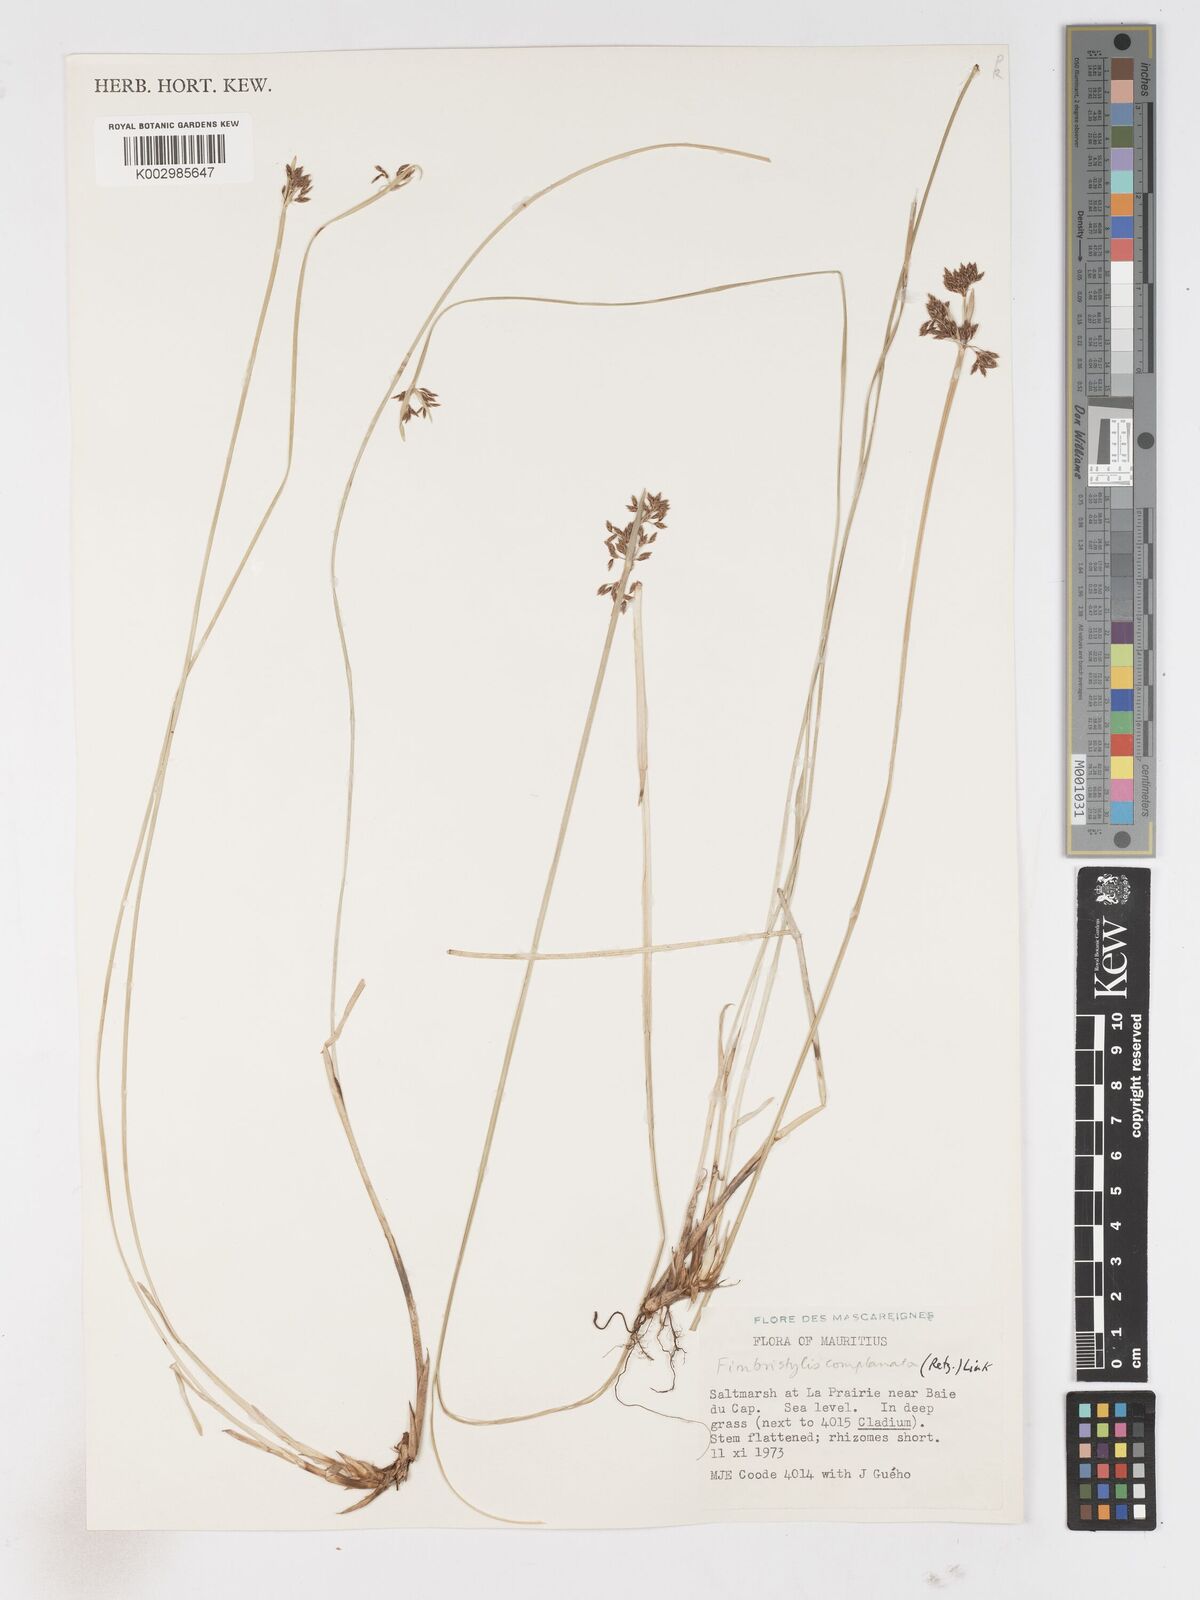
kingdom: Plantae
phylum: Tracheophyta
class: Liliopsida
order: Poales
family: Cyperaceae
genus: Fimbristylis
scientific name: Fimbristylis complanata
